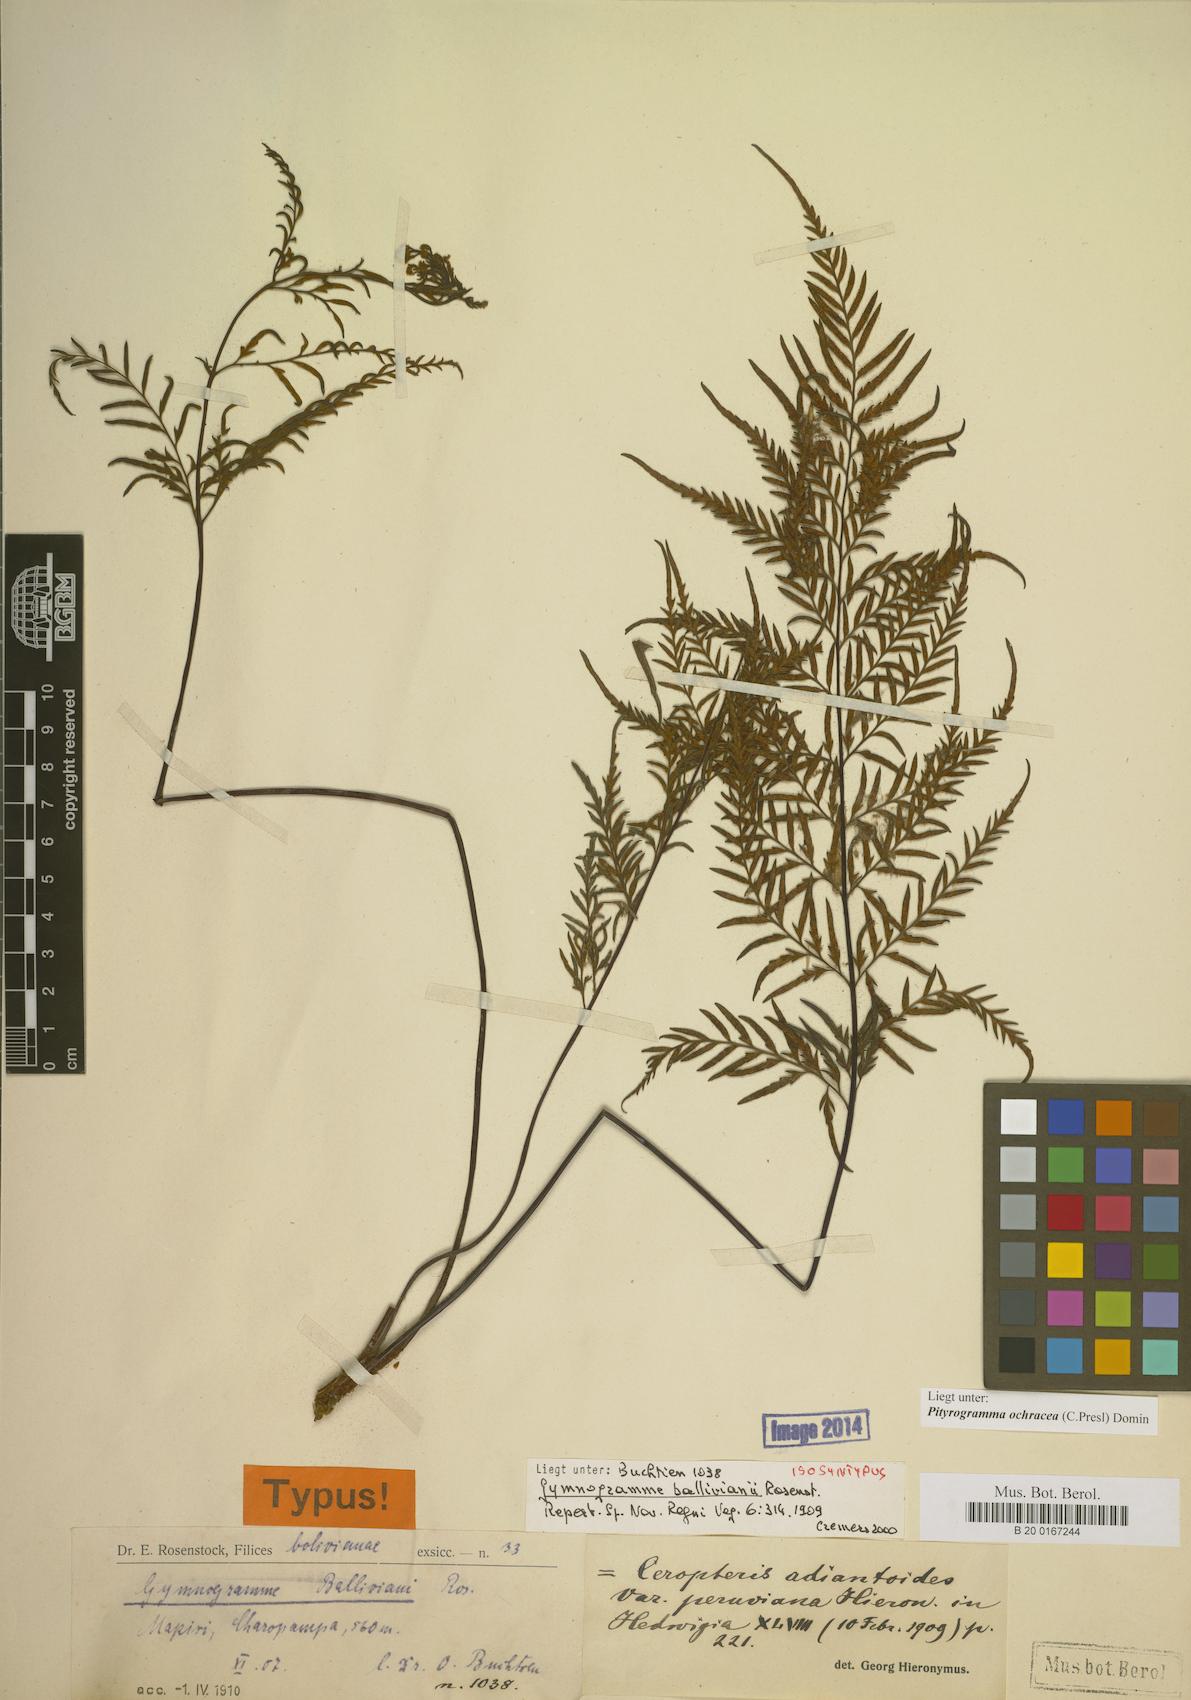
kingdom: Plantae
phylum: Tracheophyta
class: Polypodiopsida
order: Polypodiales
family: Pteridaceae
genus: Pityrogramma
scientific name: Pityrogramma ochracea
